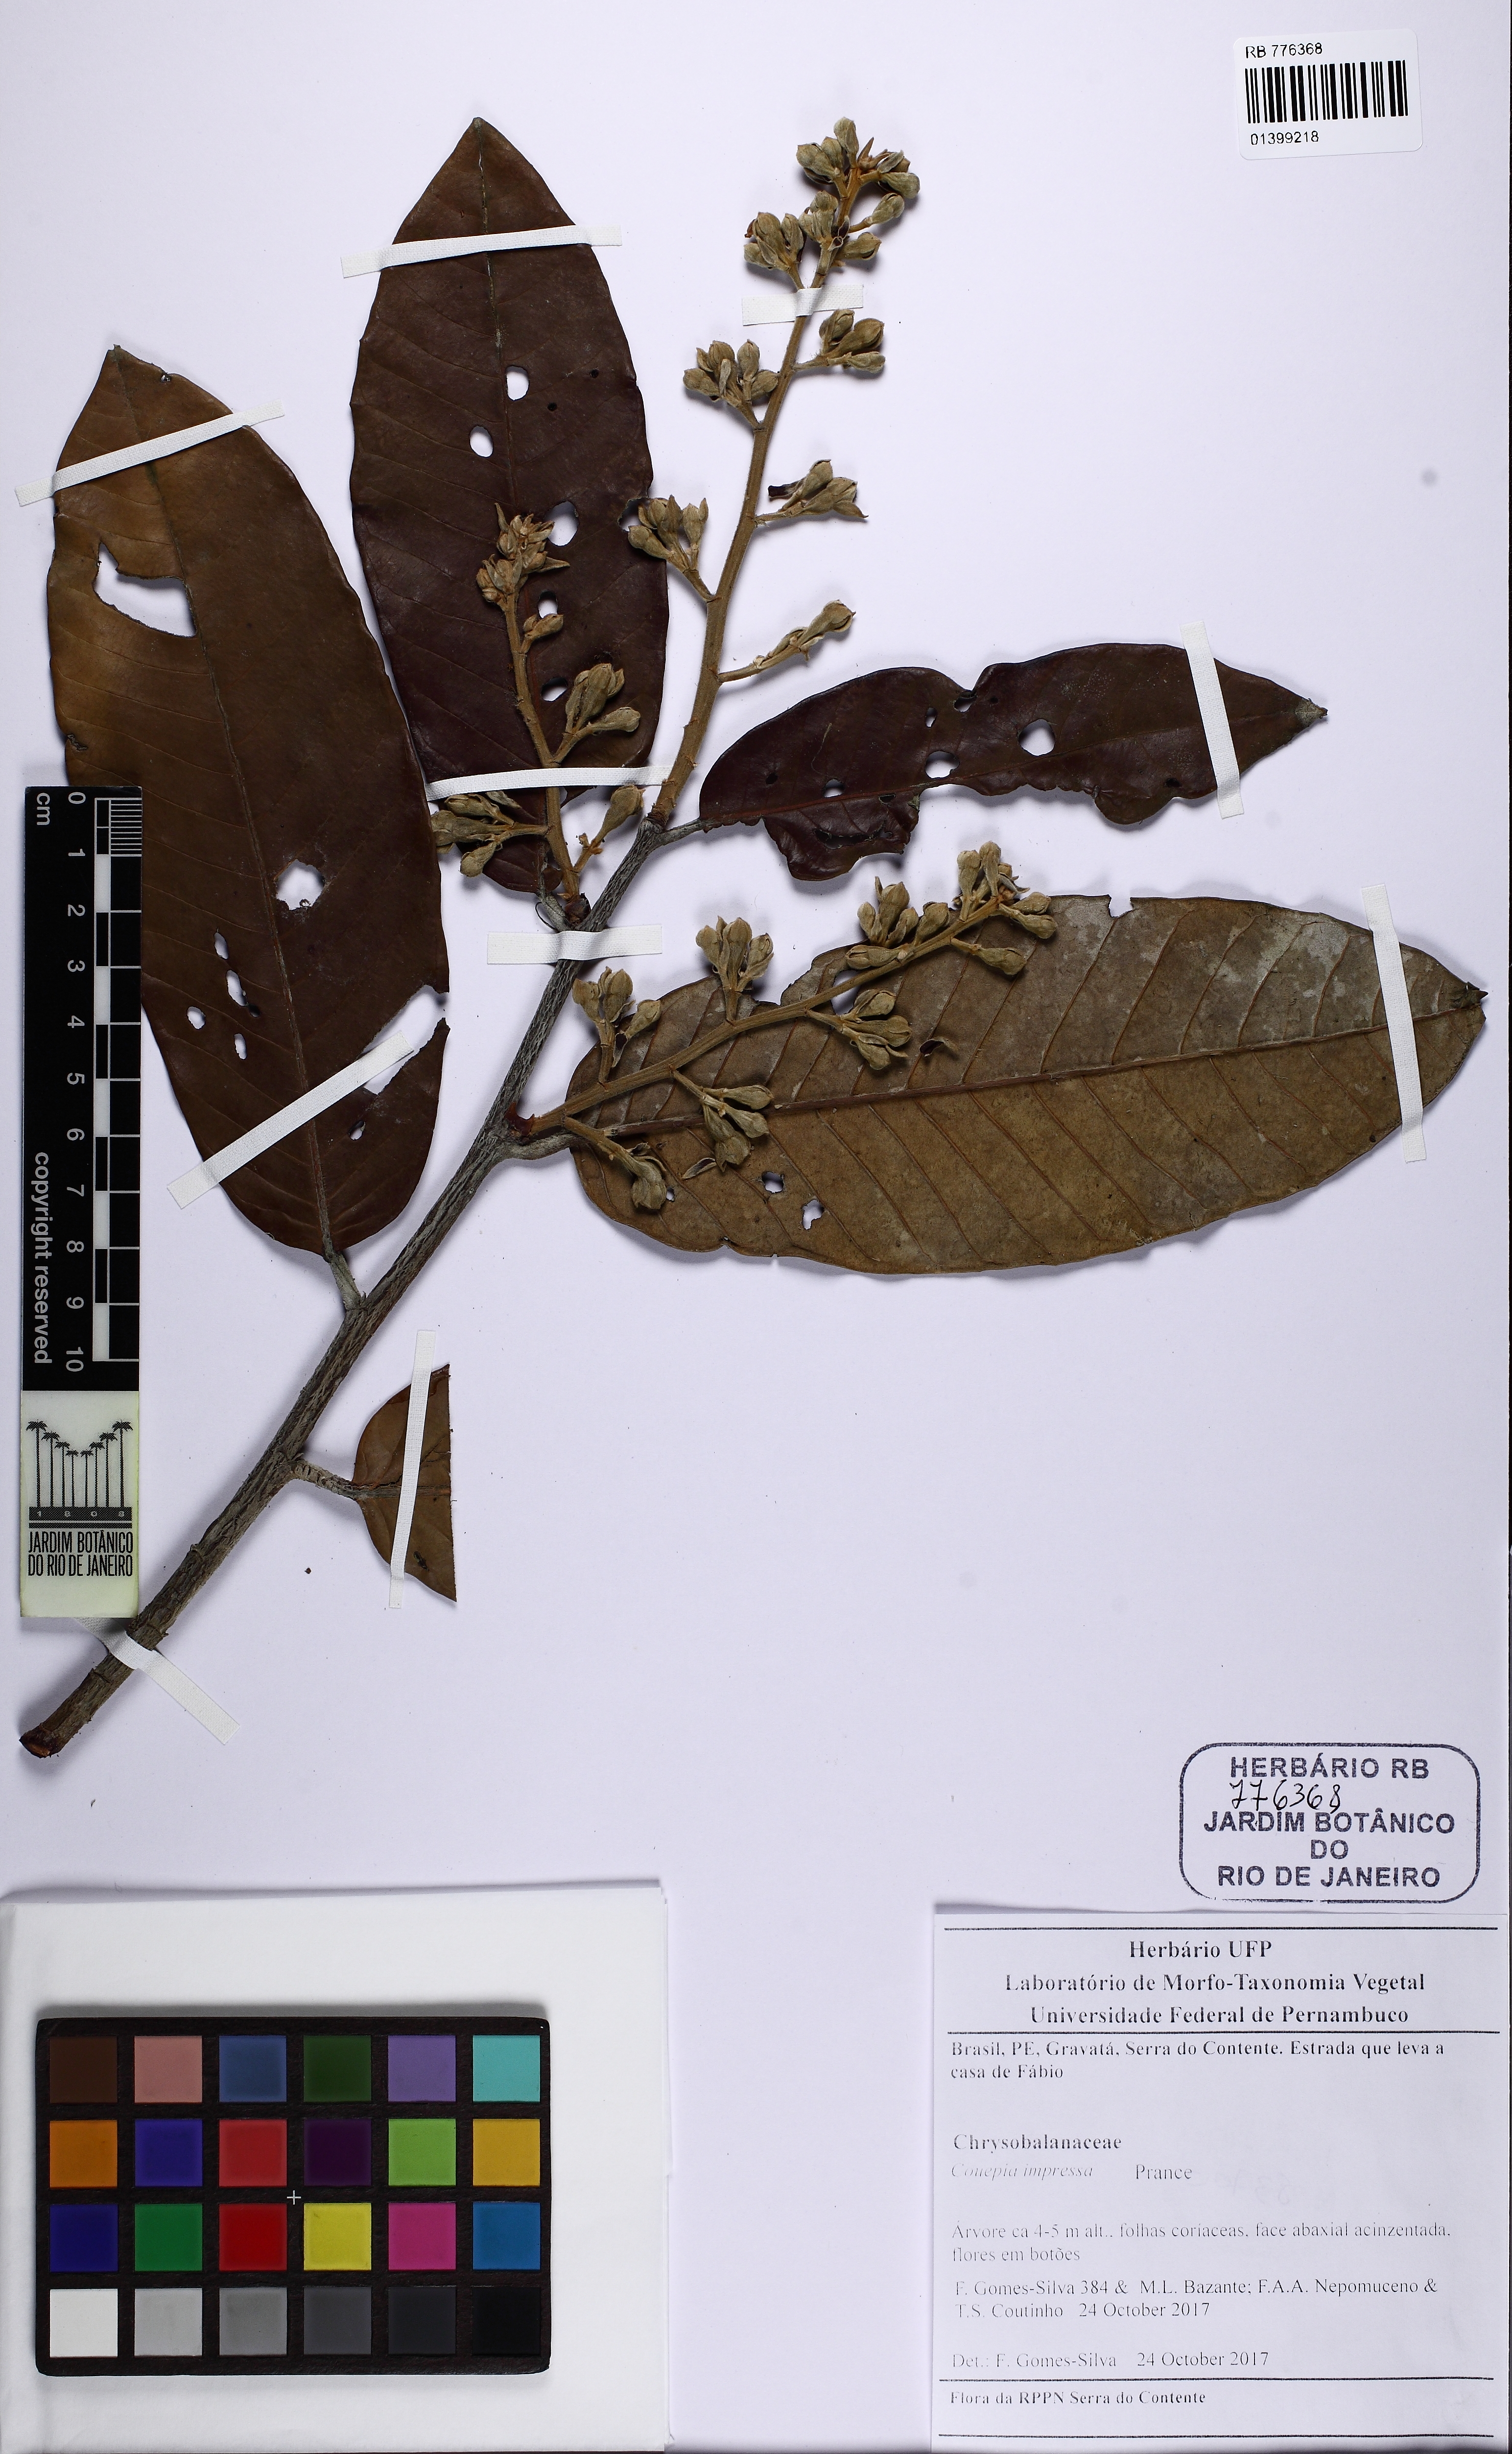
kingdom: Plantae
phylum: Tracheophyta
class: Magnoliopsida
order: Malpighiales
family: Chrysobalanaceae
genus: Couepia
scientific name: Couepia impressa
